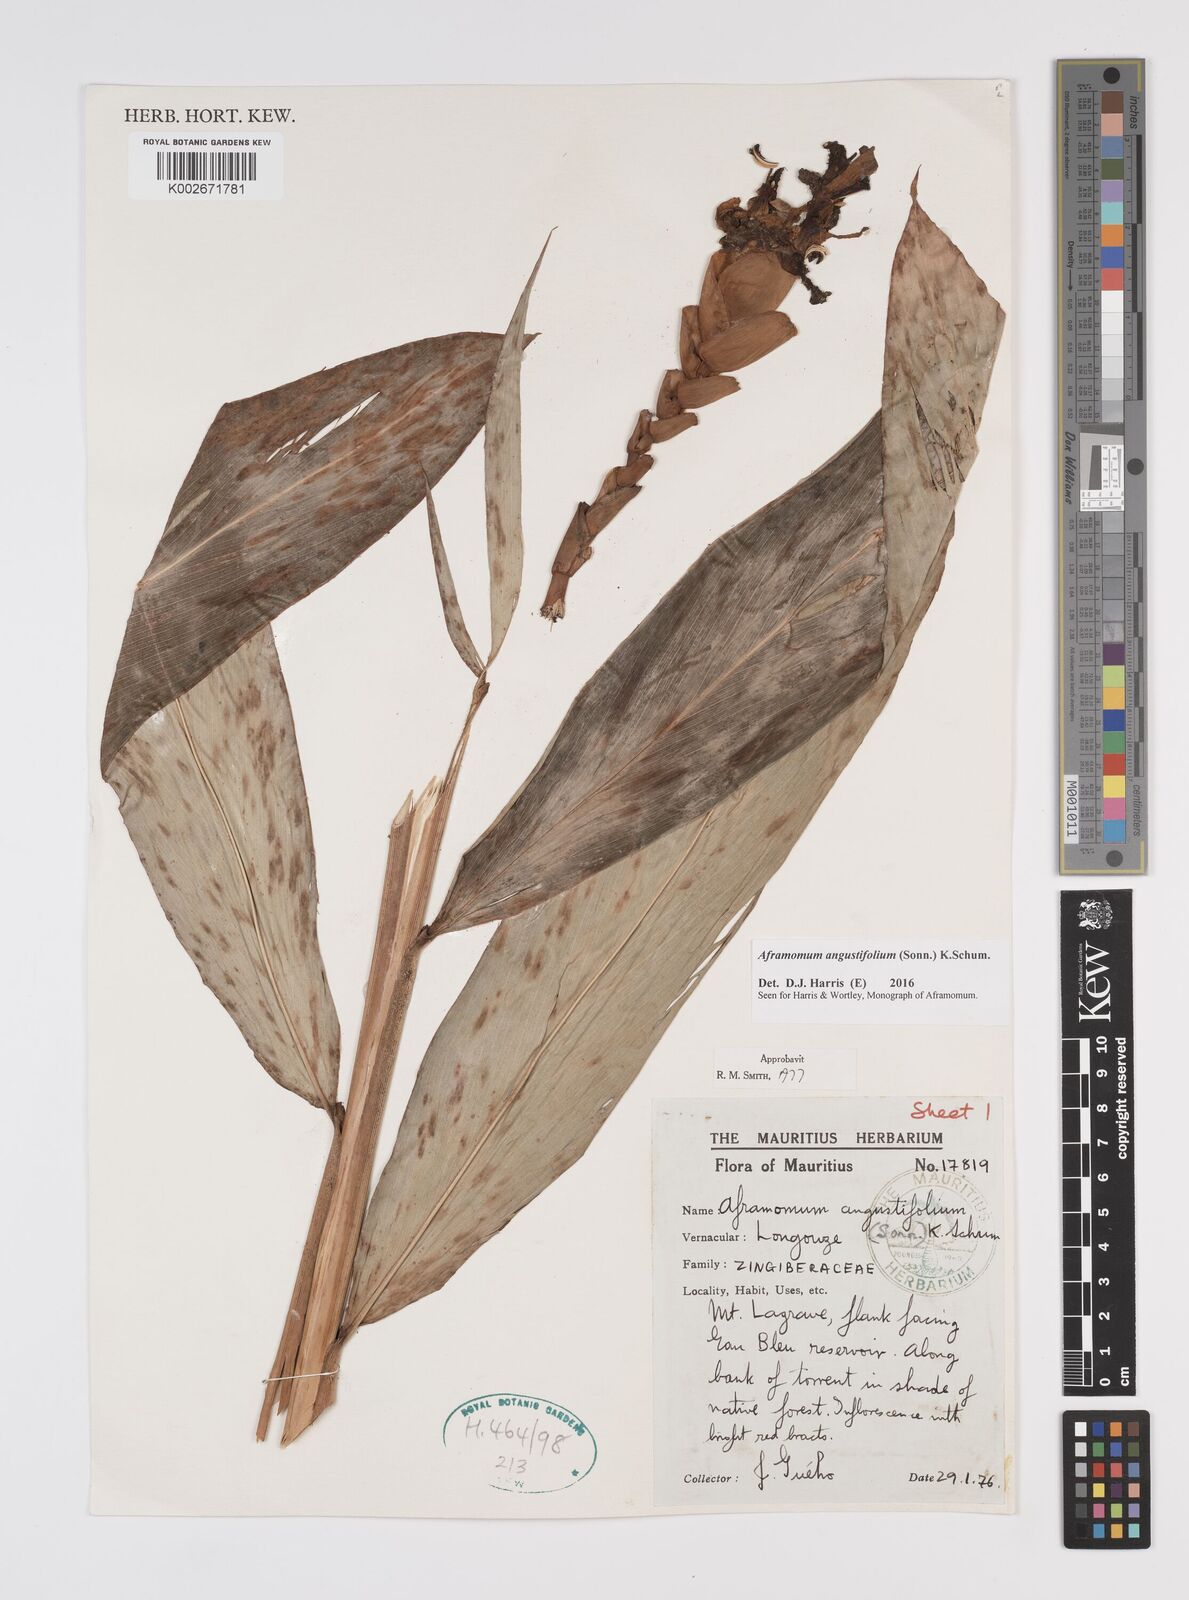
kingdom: Plantae
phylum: Tracheophyta
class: Liliopsida
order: Zingiberales
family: Zingiberaceae
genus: Aframomum
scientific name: Aframomum angustifolium
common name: Guinea grains
